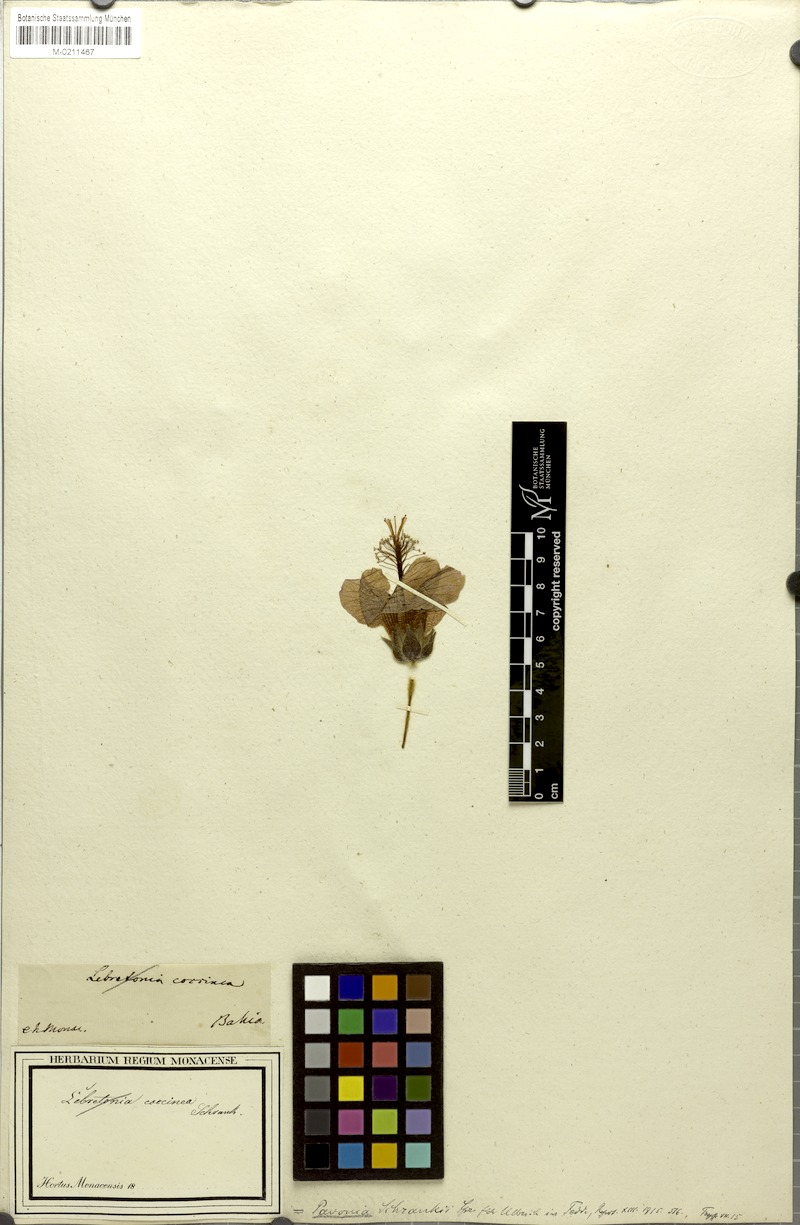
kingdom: Plantae
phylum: Tracheophyta
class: Magnoliopsida
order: Malvales
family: Malvaceae
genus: Pavonia
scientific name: Pavonia schrankii
